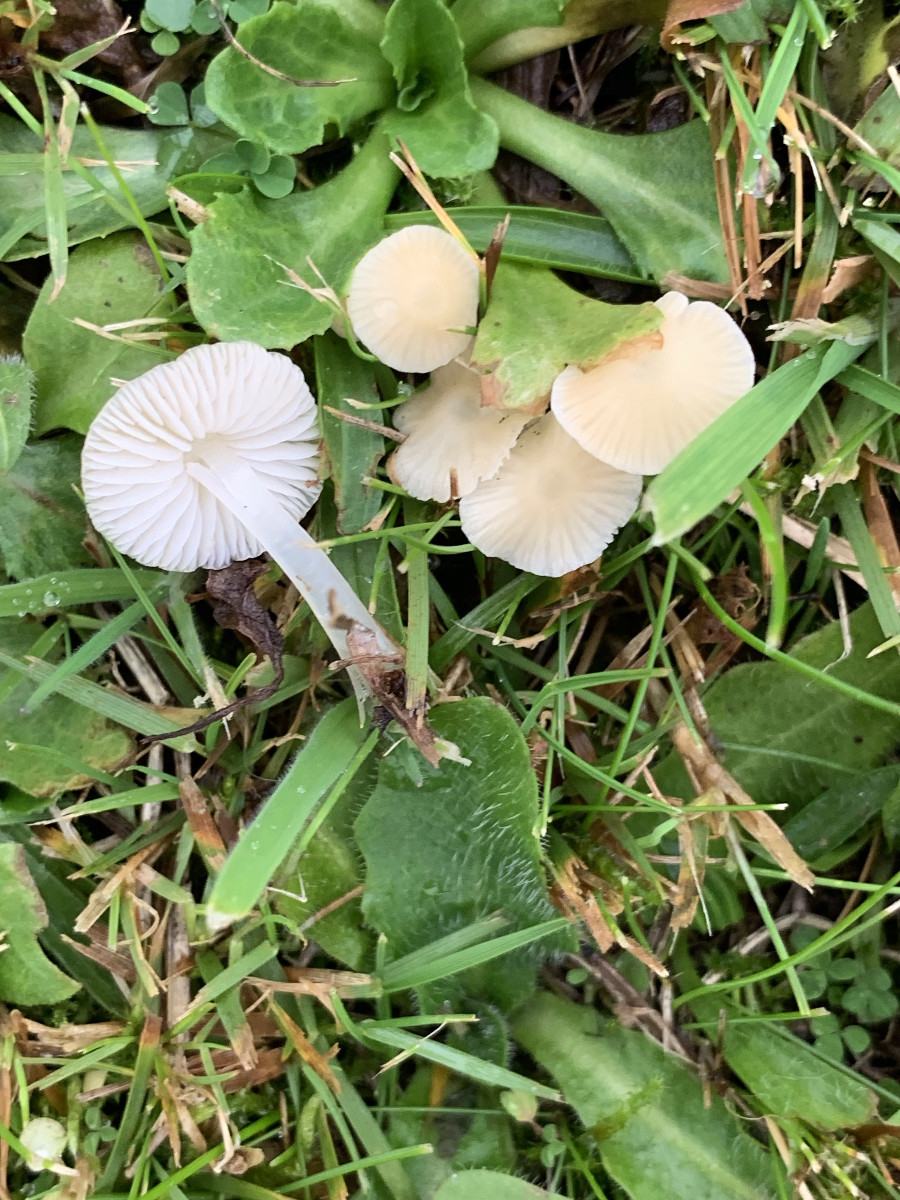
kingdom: Fungi
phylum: Basidiomycota
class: Agaricomycetes
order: Agaricales
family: Mycenaceae
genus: Atheniella
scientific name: Atheniella flavoalba
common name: gulhvid huesvamp
